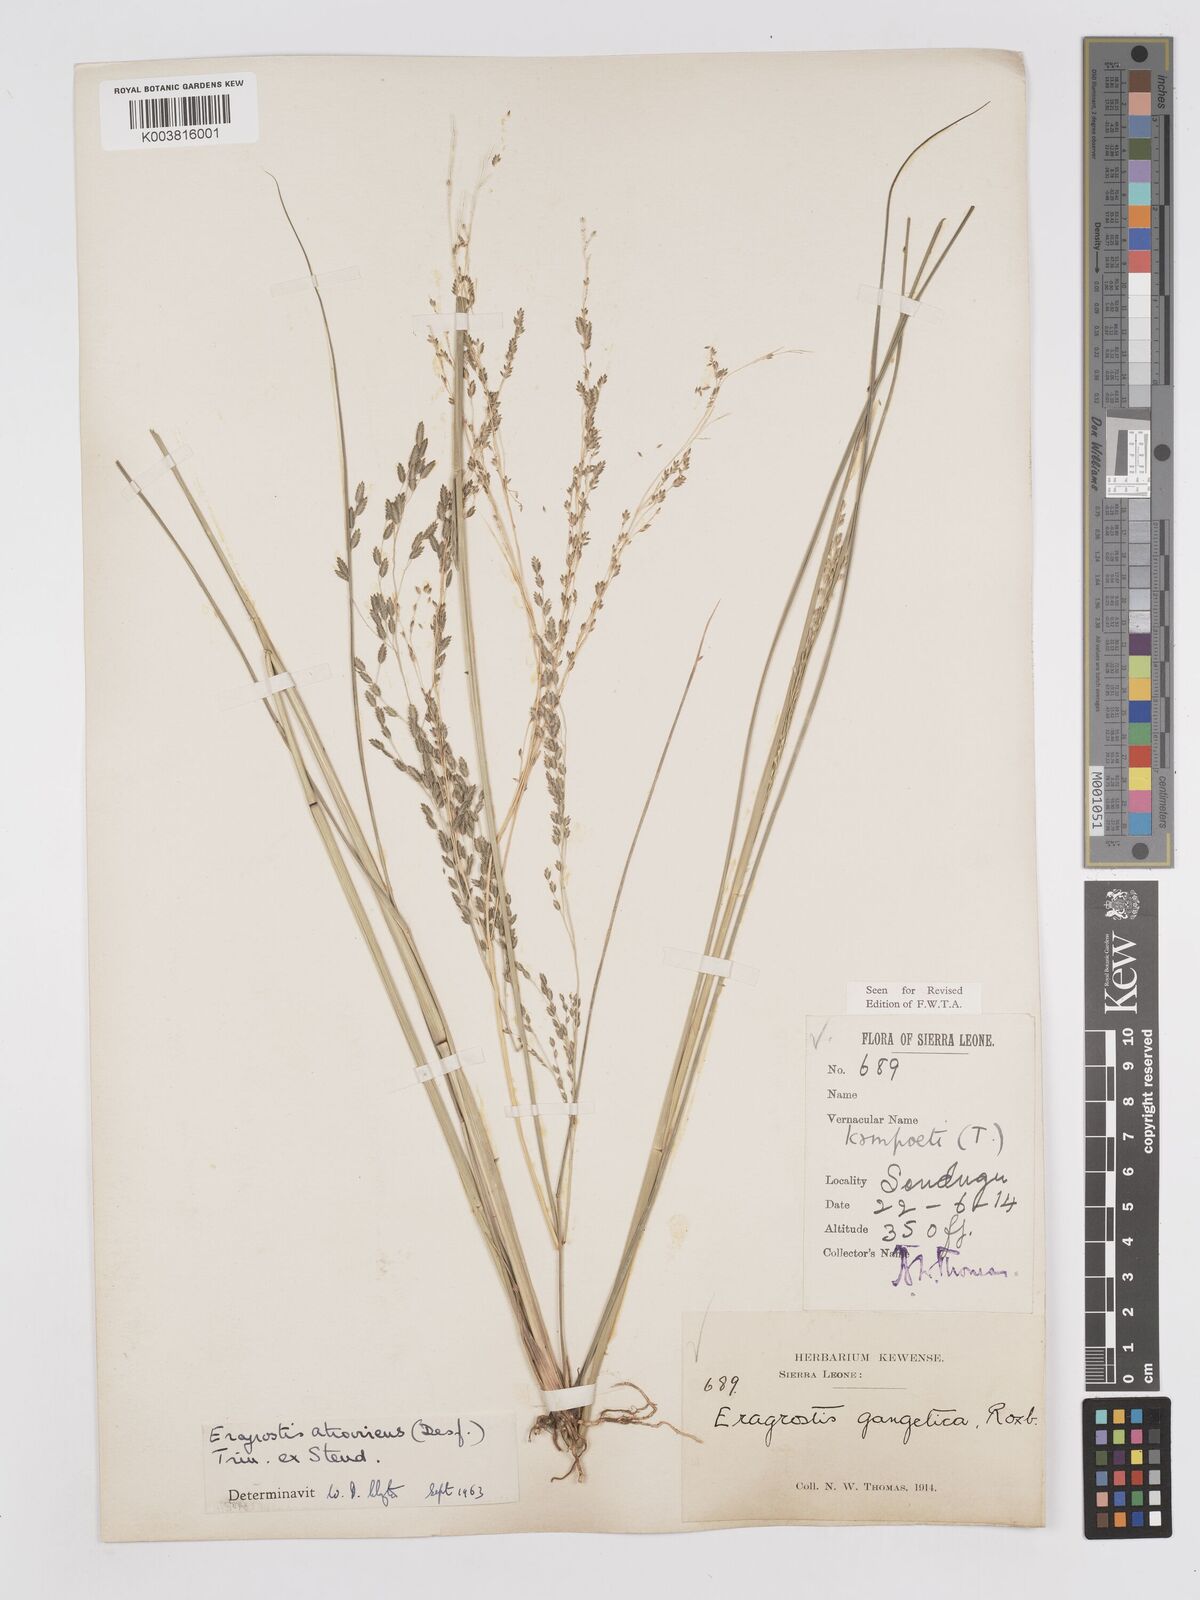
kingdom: Plantae
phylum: Tracheophyta
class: Liliopsida
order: Poales
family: Poaceae
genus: Eragrostis
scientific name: Eragrostis atrovirens
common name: Thalia lovegrass
